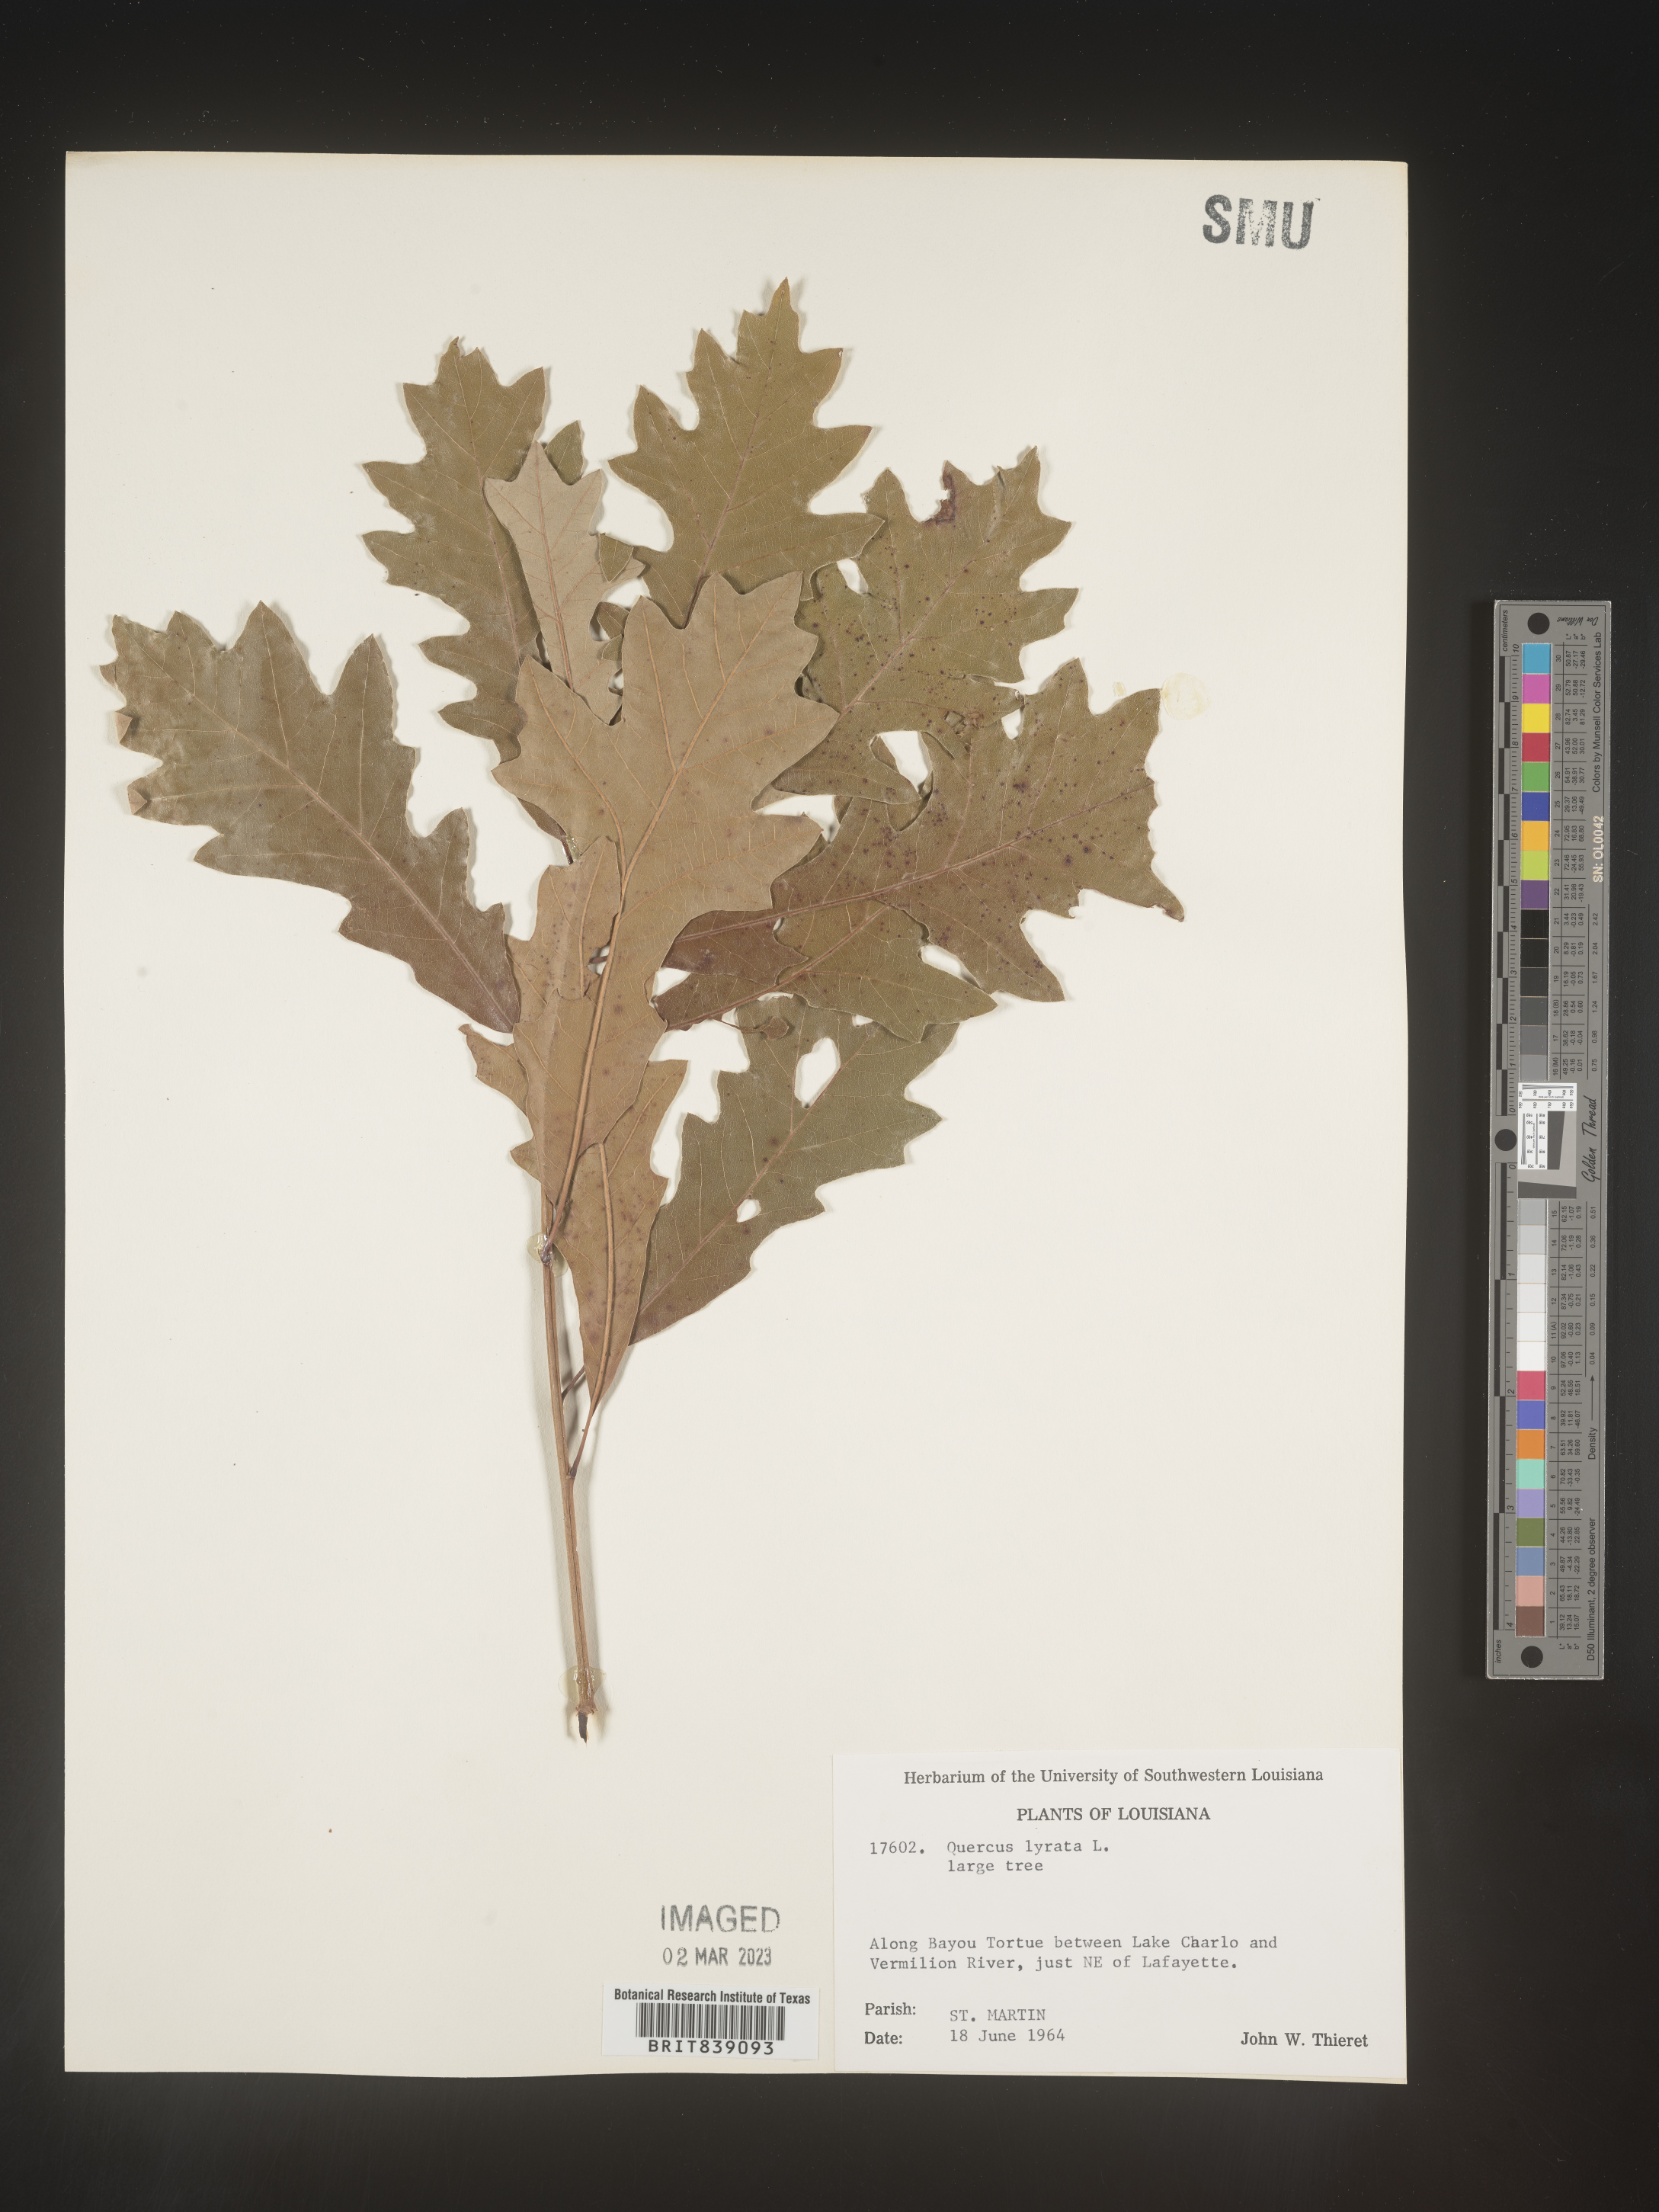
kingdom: Plantae
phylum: Tracheophyta
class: Magnoliopsida
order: Fagales
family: Fagaceae
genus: Quercus
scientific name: Quercus lyrata
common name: Overcup oak
